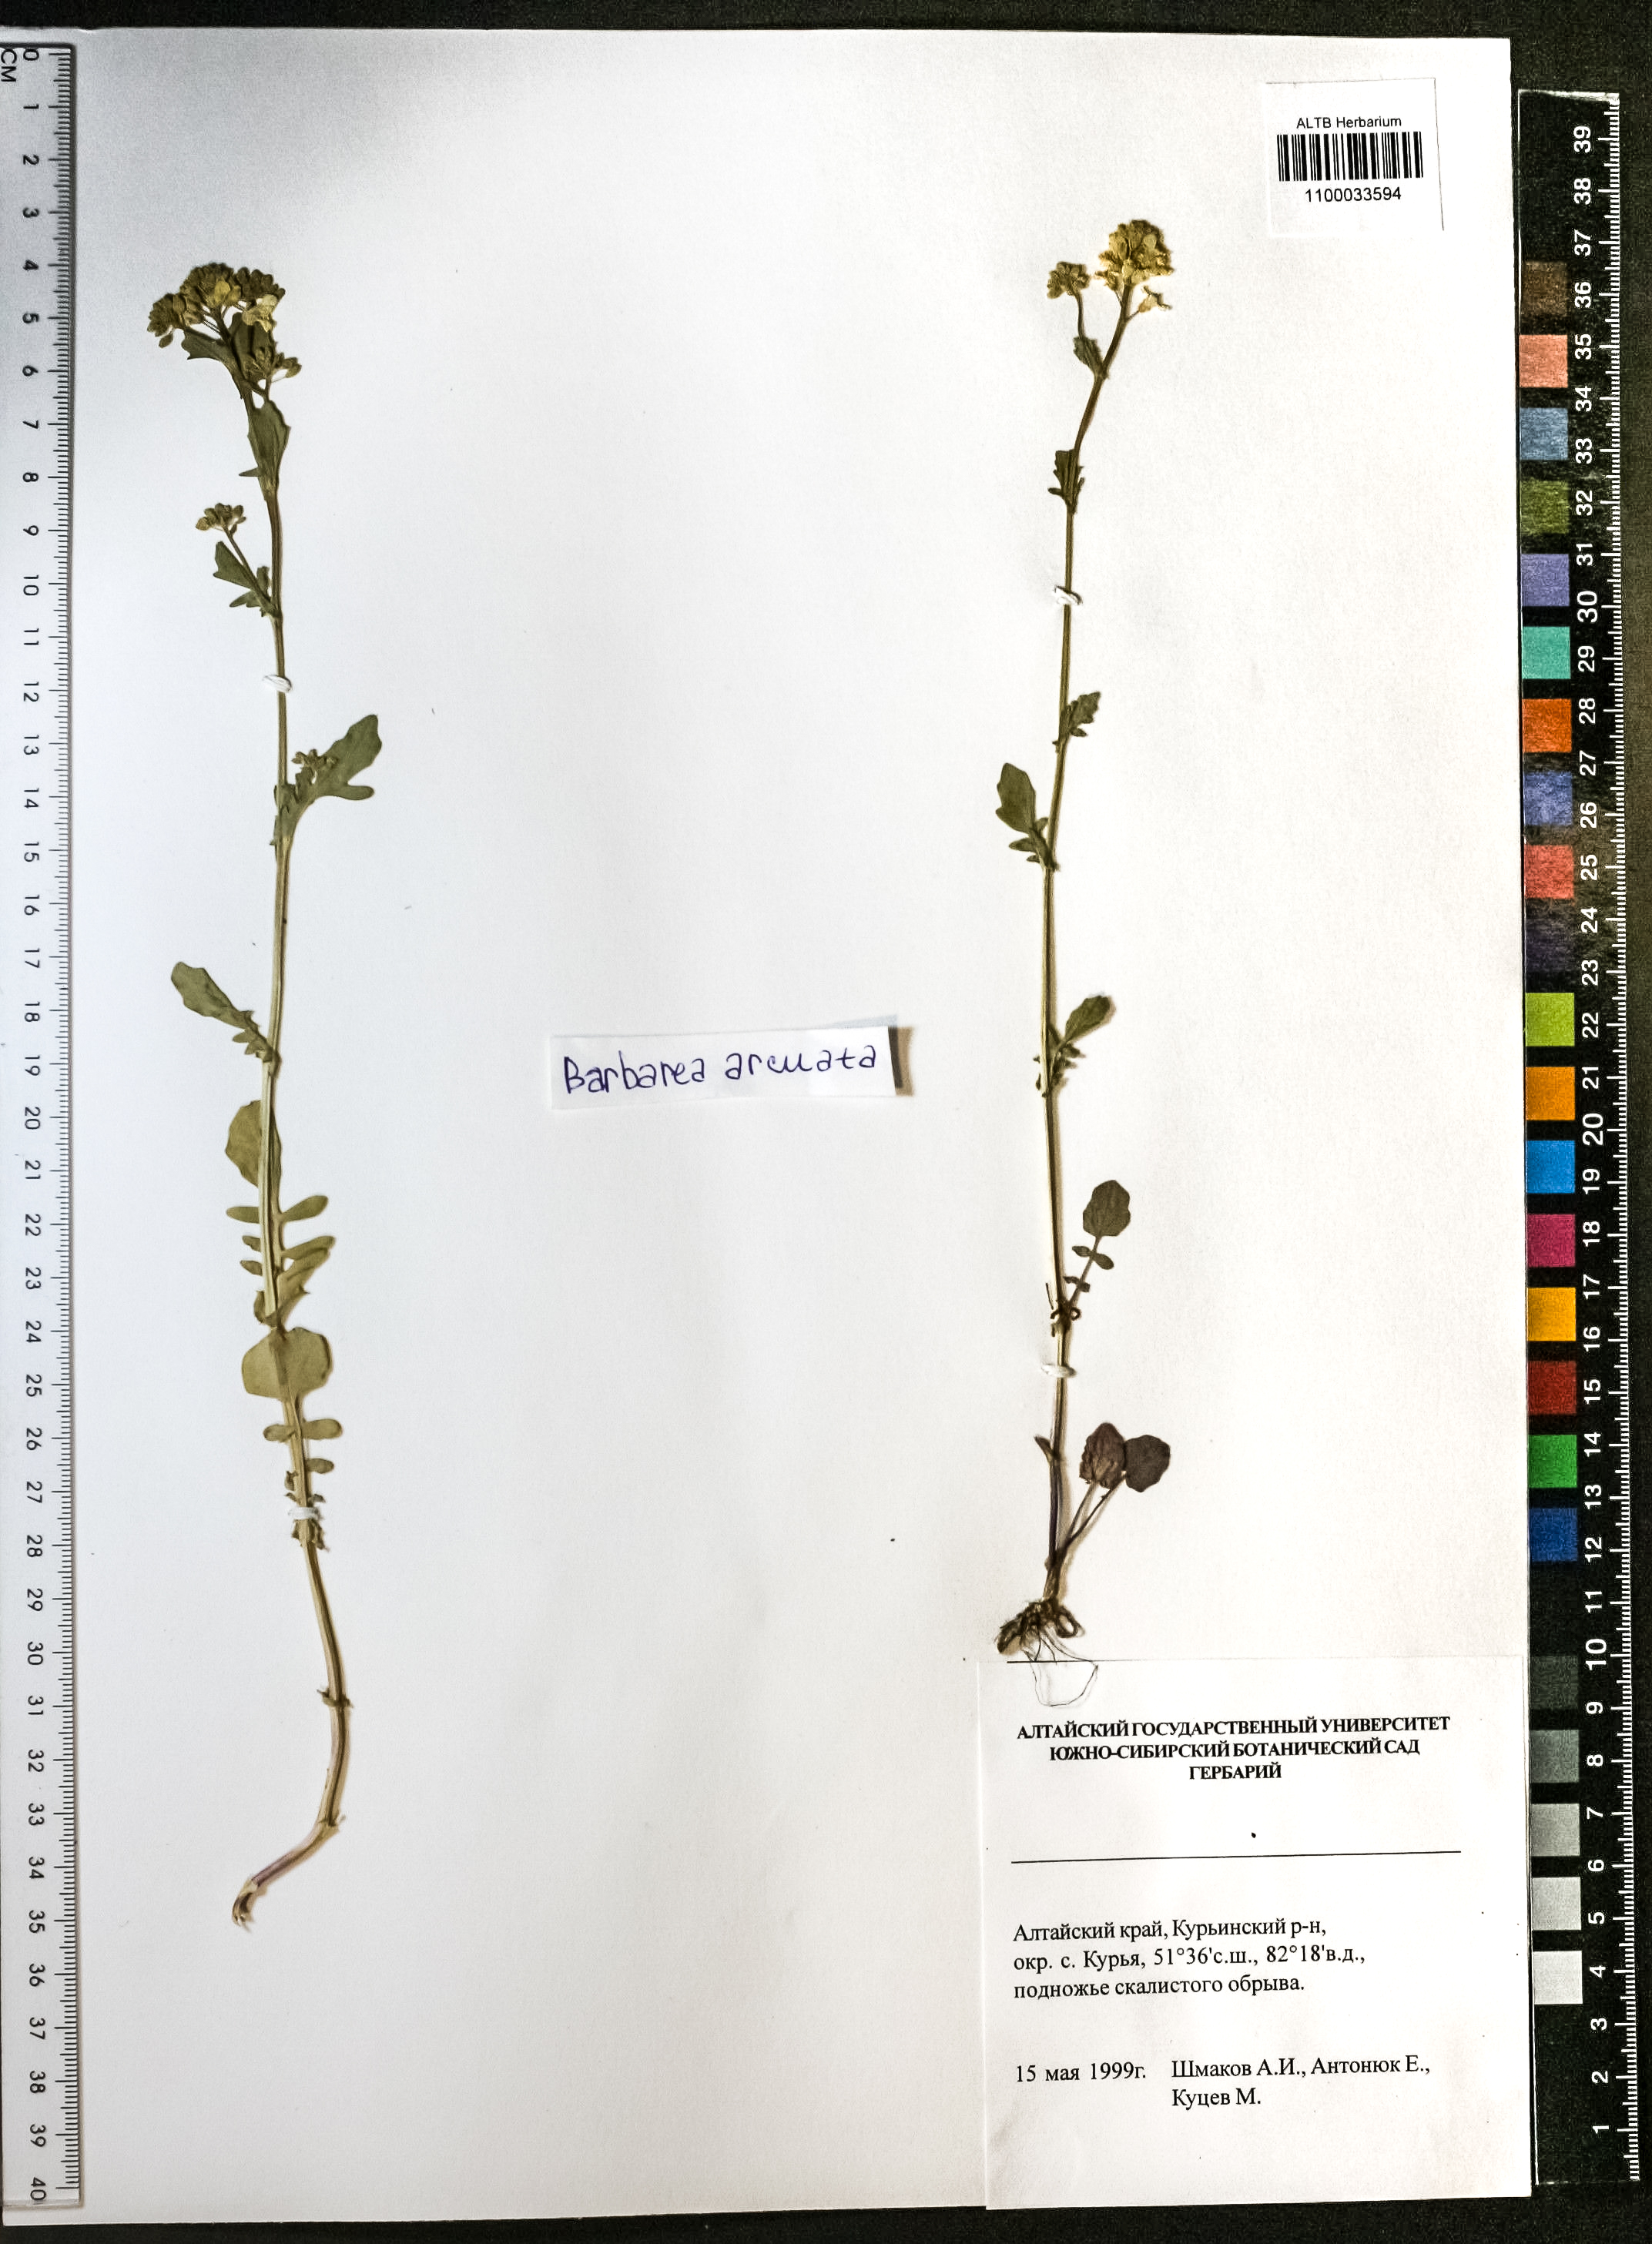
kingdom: Plantae
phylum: Tracheophyta
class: Magnoliopsida
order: Brassicales
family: Brassicaceae
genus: Barbarea
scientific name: Barbarea vulgaris
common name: Cressy-greens
